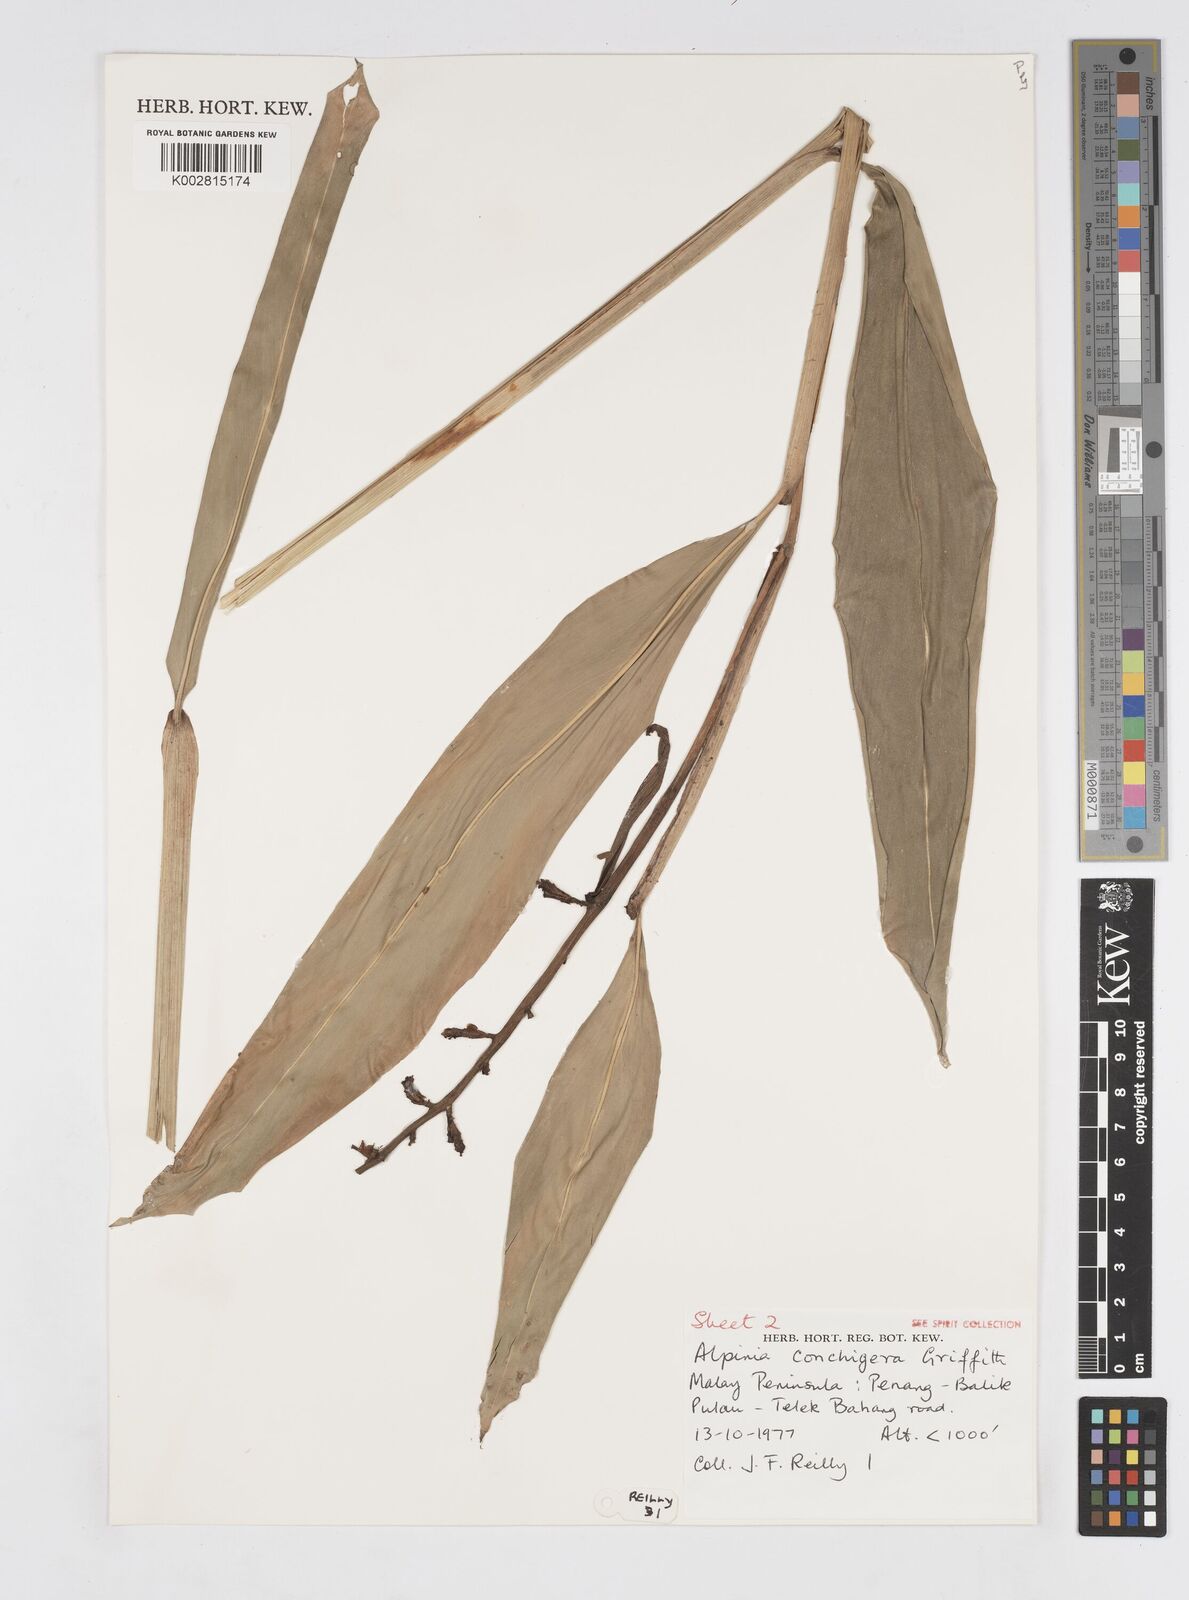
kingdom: Plantae
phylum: Tracheophyta
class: Liliopsida
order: Zingiberales
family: Zingiberaceae
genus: Alpinia
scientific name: Alpinia conchigera
